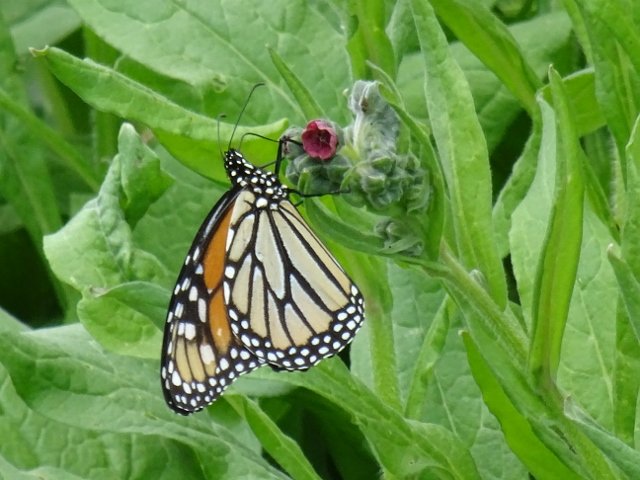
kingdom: Animalia
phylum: Arthropoda
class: Insecta
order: Lepidoptera
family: Nymphalidae
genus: Danaus
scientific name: Danaus plexippus
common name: Monarch
